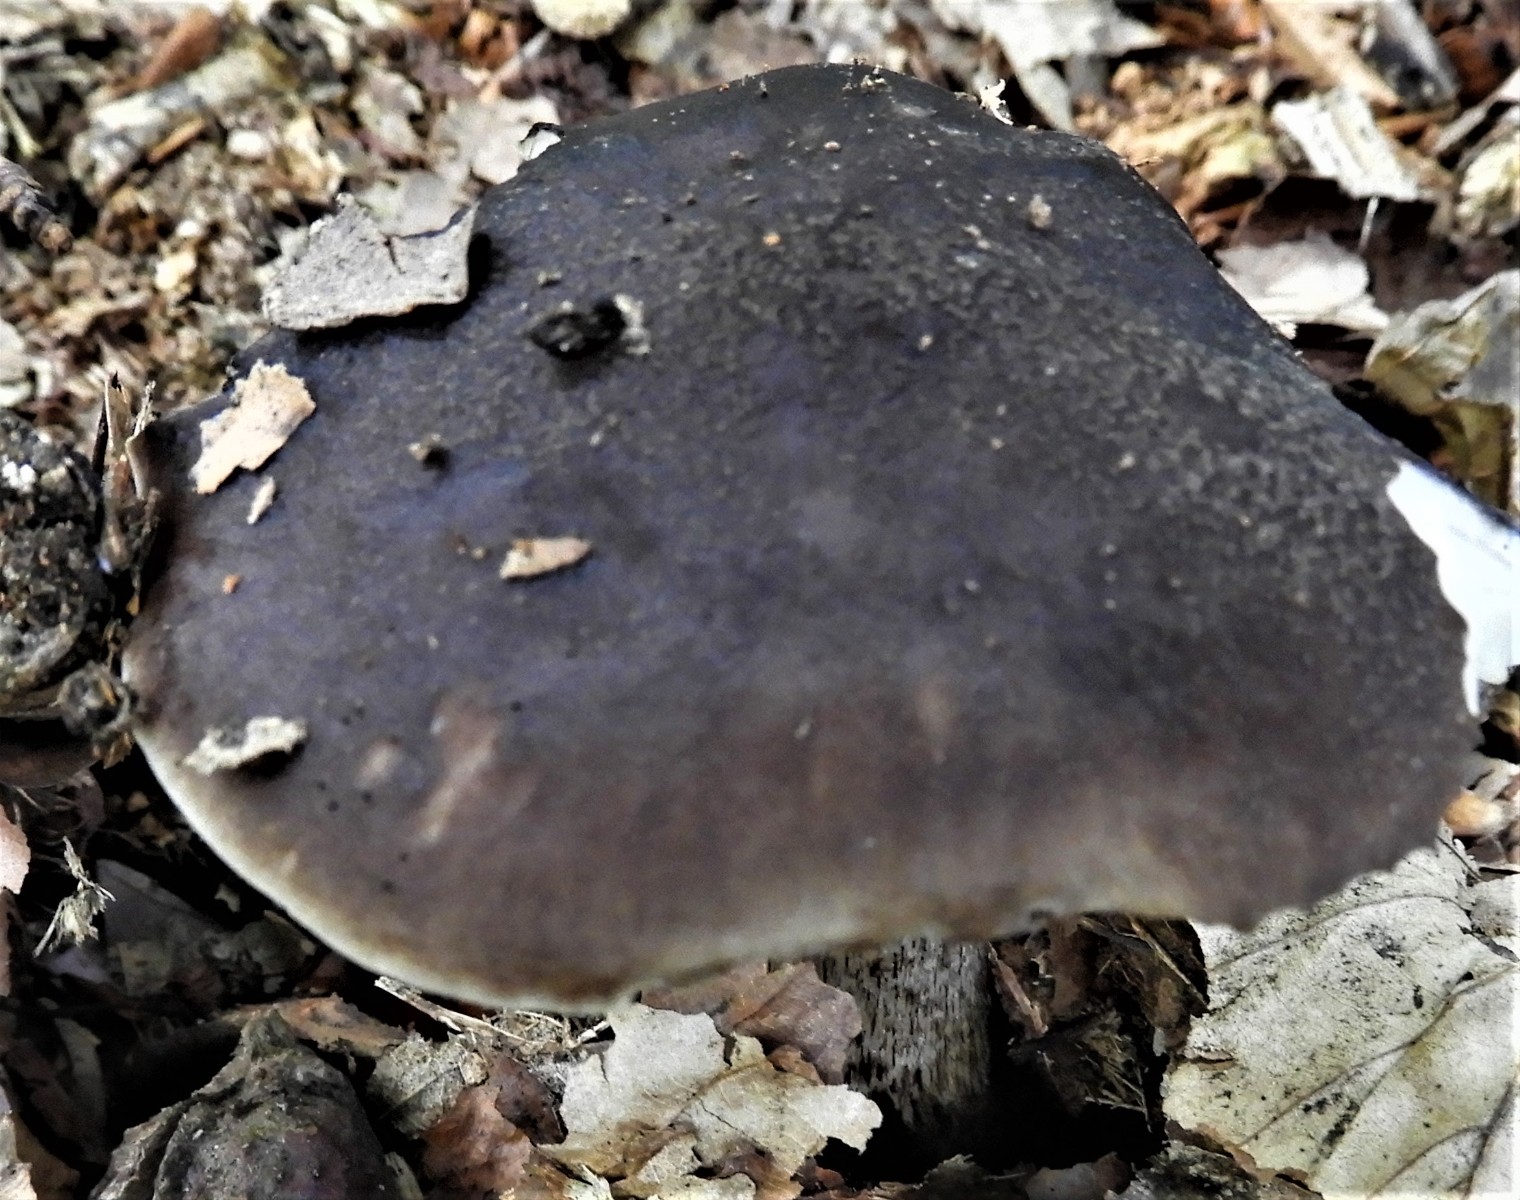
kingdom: Fungi
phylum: Basidiomycota
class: Agaricomycetes
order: Agaricales
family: Pluteaceae
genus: Pluteus
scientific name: Pluteus cervinus
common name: sodfarvet skærmhat
